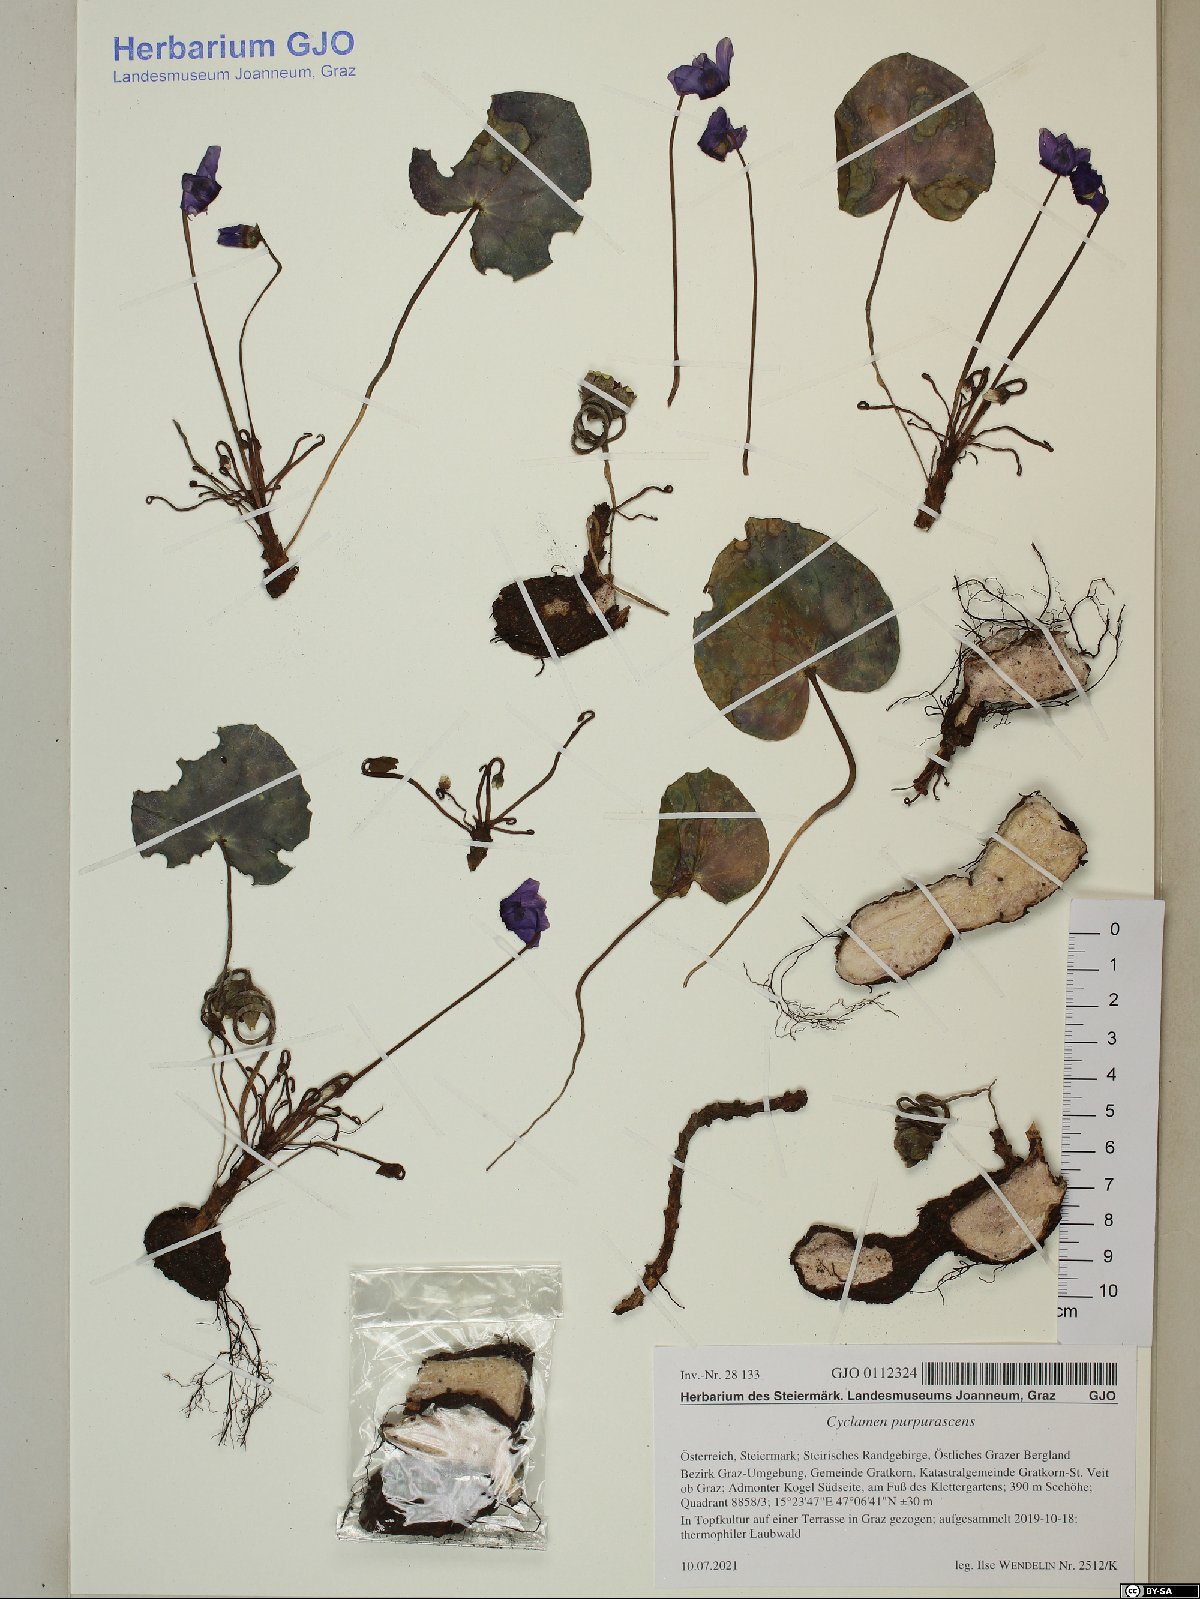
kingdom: Plantae
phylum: Tracheophyta
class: Magnoliopsida
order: Ericales
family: Primulaceae
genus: Cyclamen
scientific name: Cyclamen purpurascens
